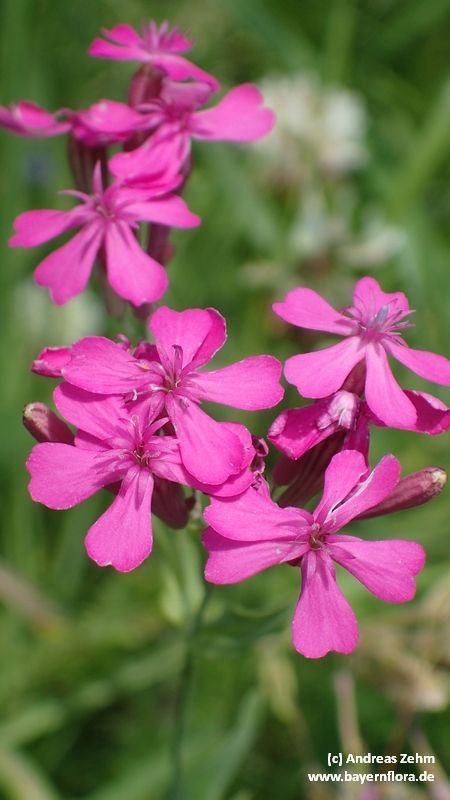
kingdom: Plantae
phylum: Tracheophyta
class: Magnoliopsida
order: Caryophyllales
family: Caryophyllaceae
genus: Atocion
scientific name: Atocion armeria
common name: Sweet william catchfly
